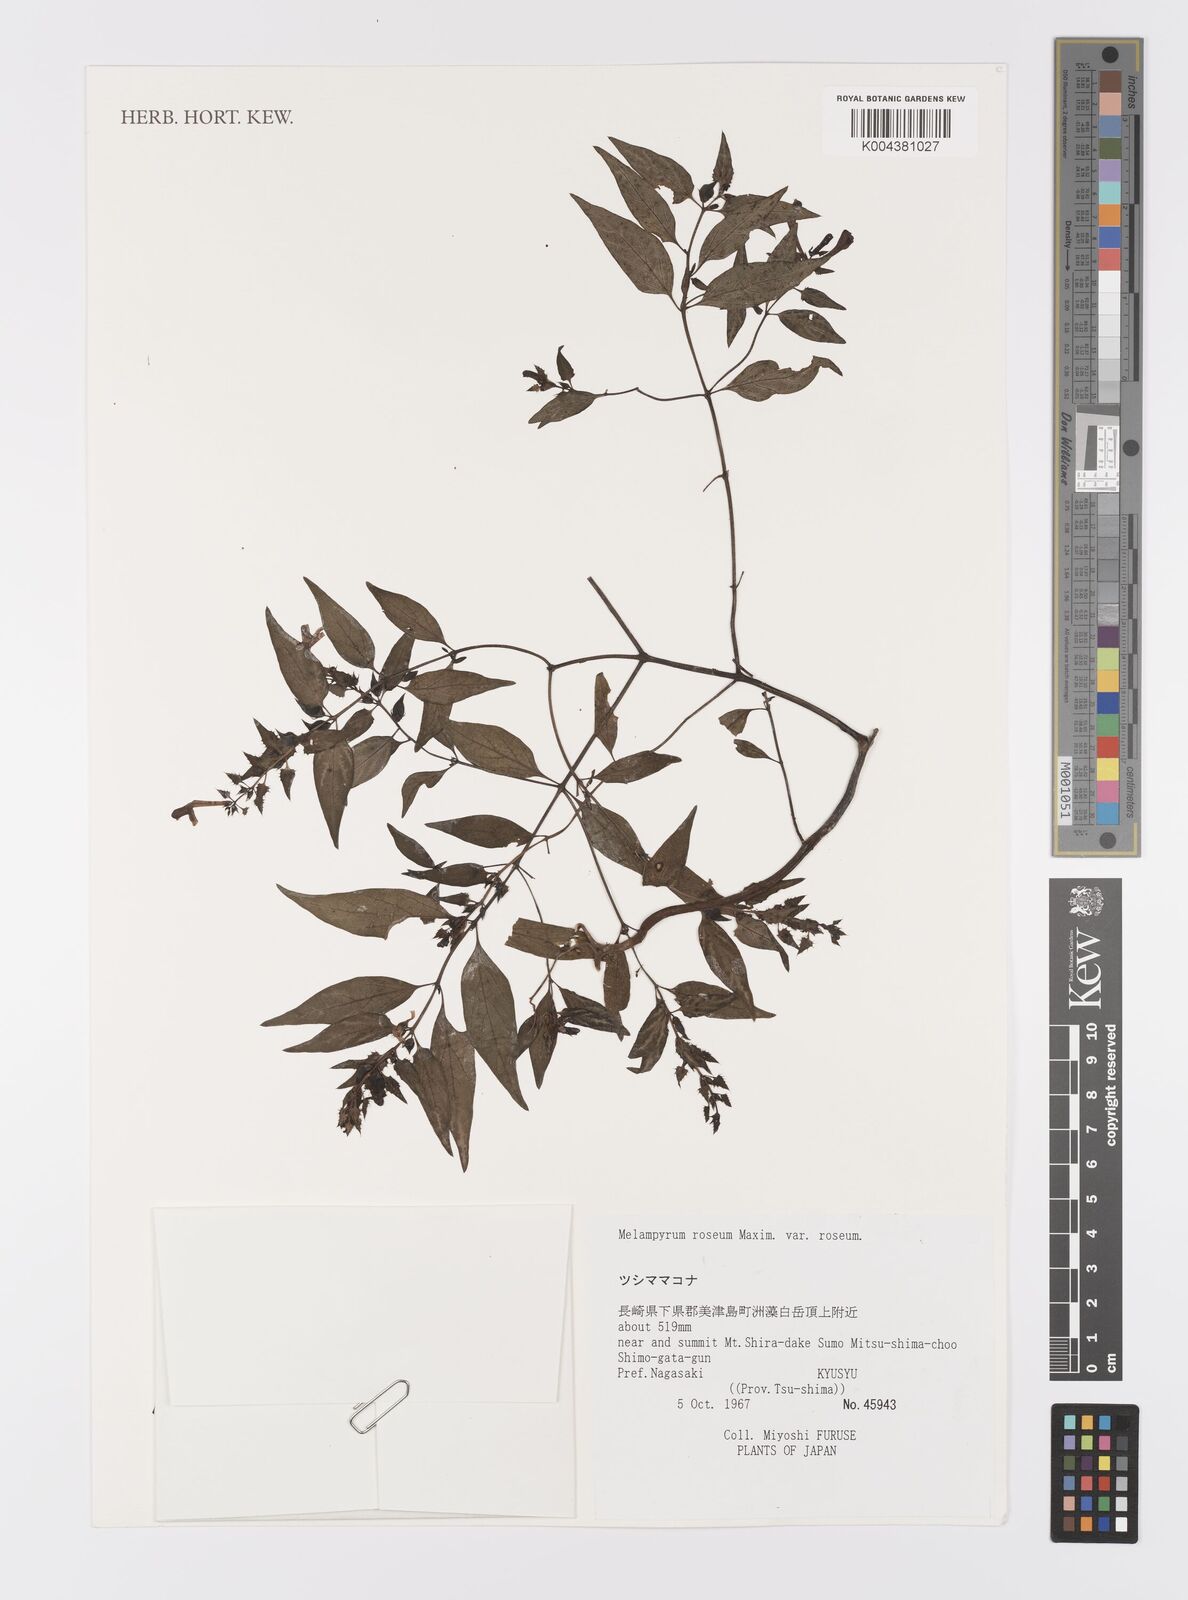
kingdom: Plantae
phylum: Tracheophyta
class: Magnoliopsida
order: Lamiales
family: Orobanchaceae
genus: Melampyrum
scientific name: Melampyrum roseum
